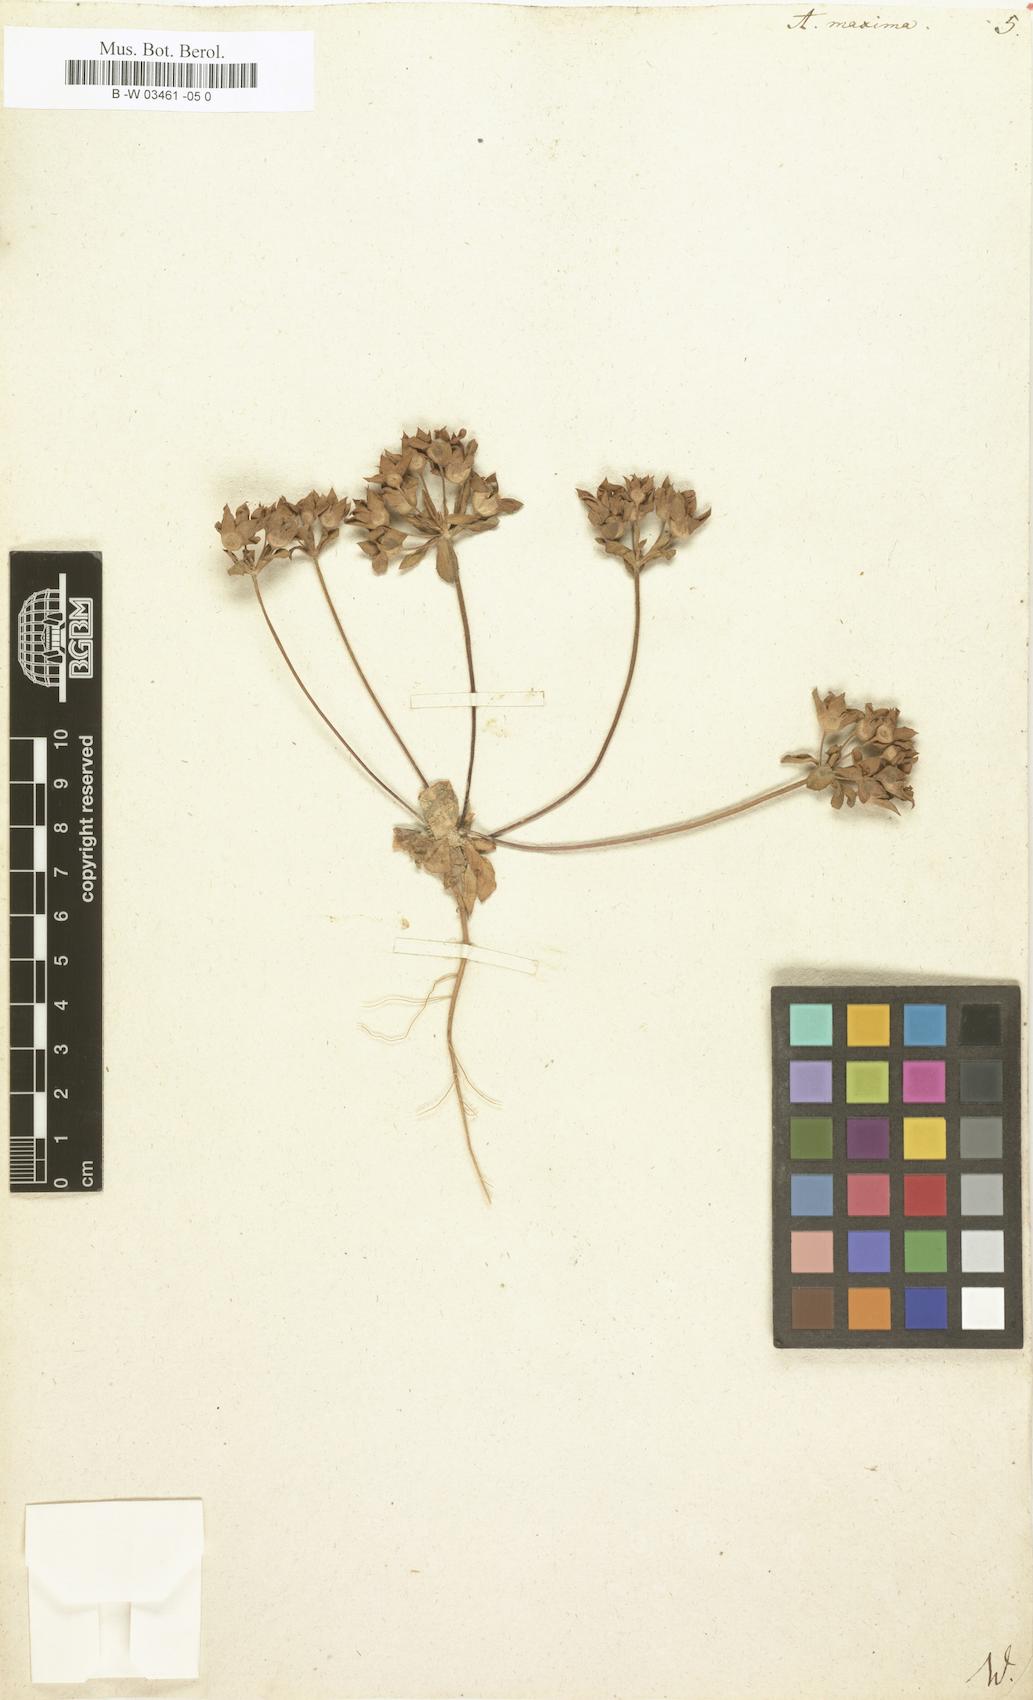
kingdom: Plantae
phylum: Tracheophyta
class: Magnoliopsida
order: Ericales
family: Primulaceae
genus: Androsace
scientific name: Androsace maxima
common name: Annual androsace
